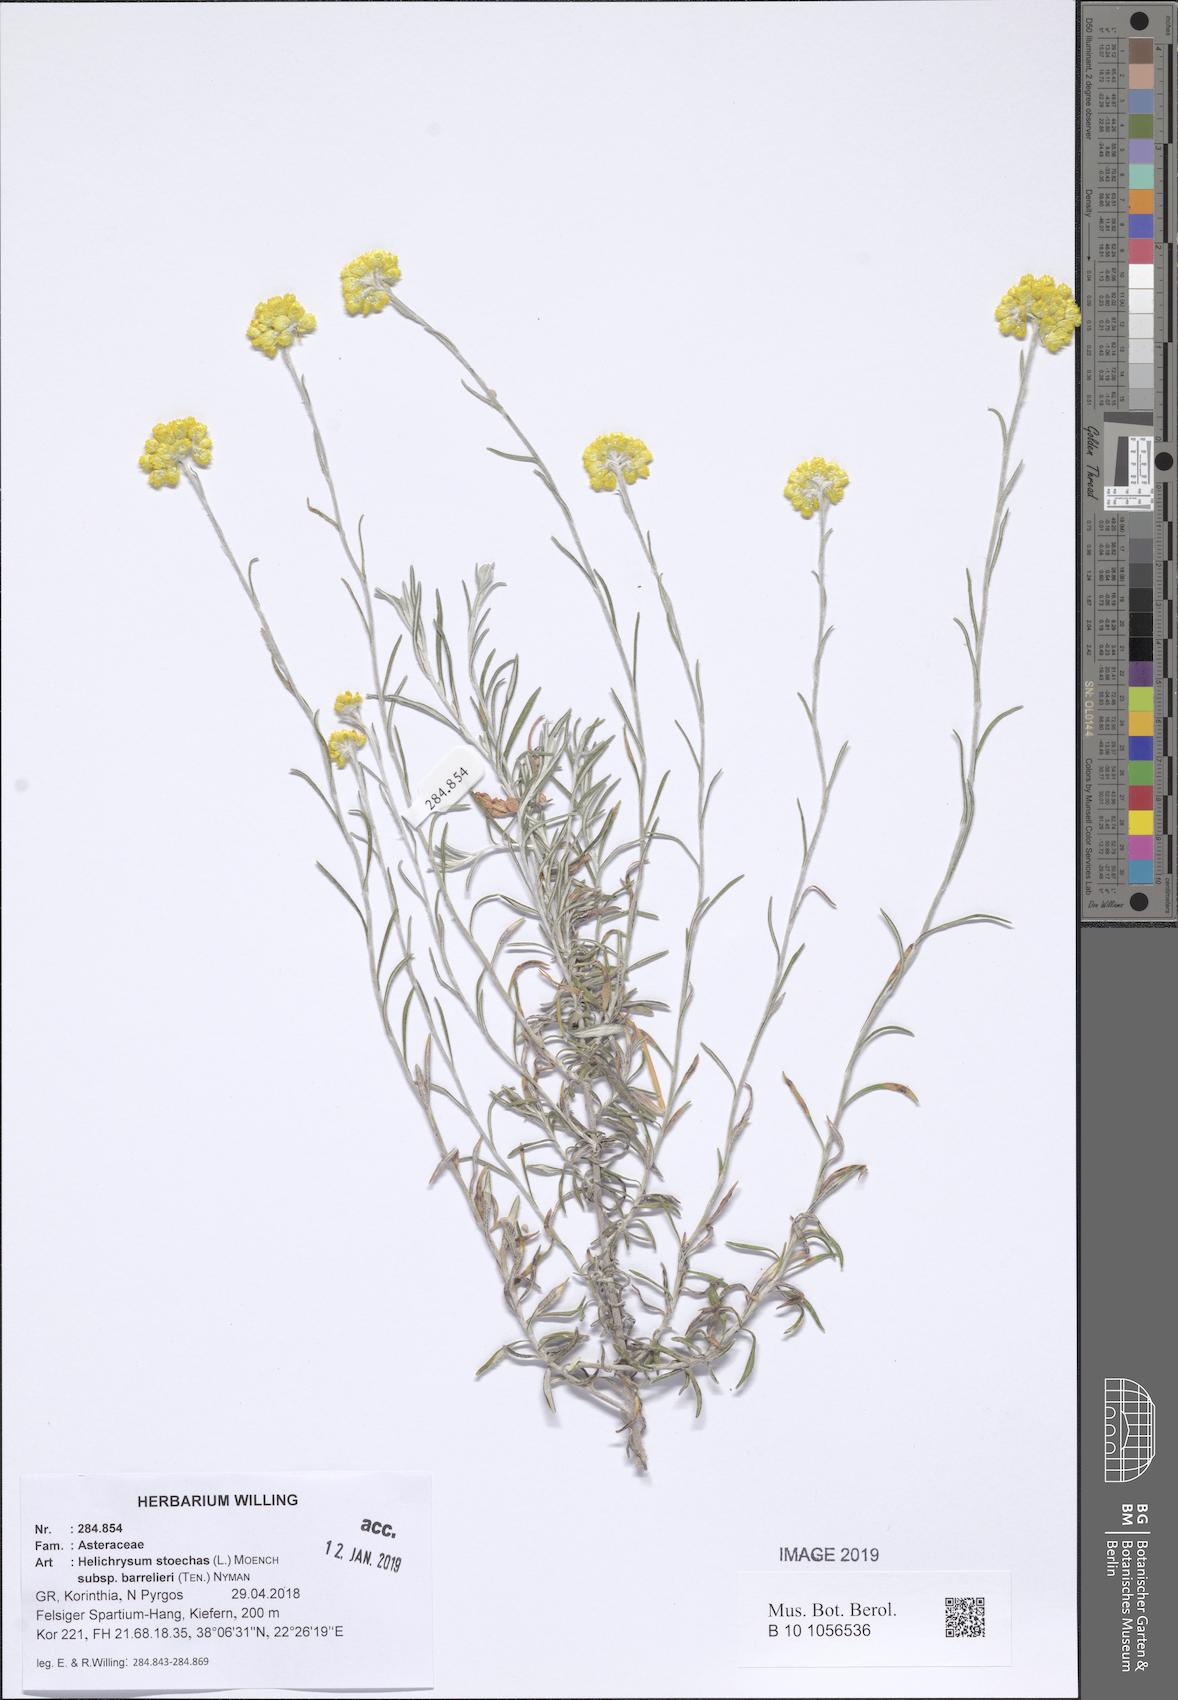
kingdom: Plantae
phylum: Tracheophyta
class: Magnoliopsida
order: Asterales
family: Asteraceae
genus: Helichrysum
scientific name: Helichrysum stoechas
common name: Goldilocks
